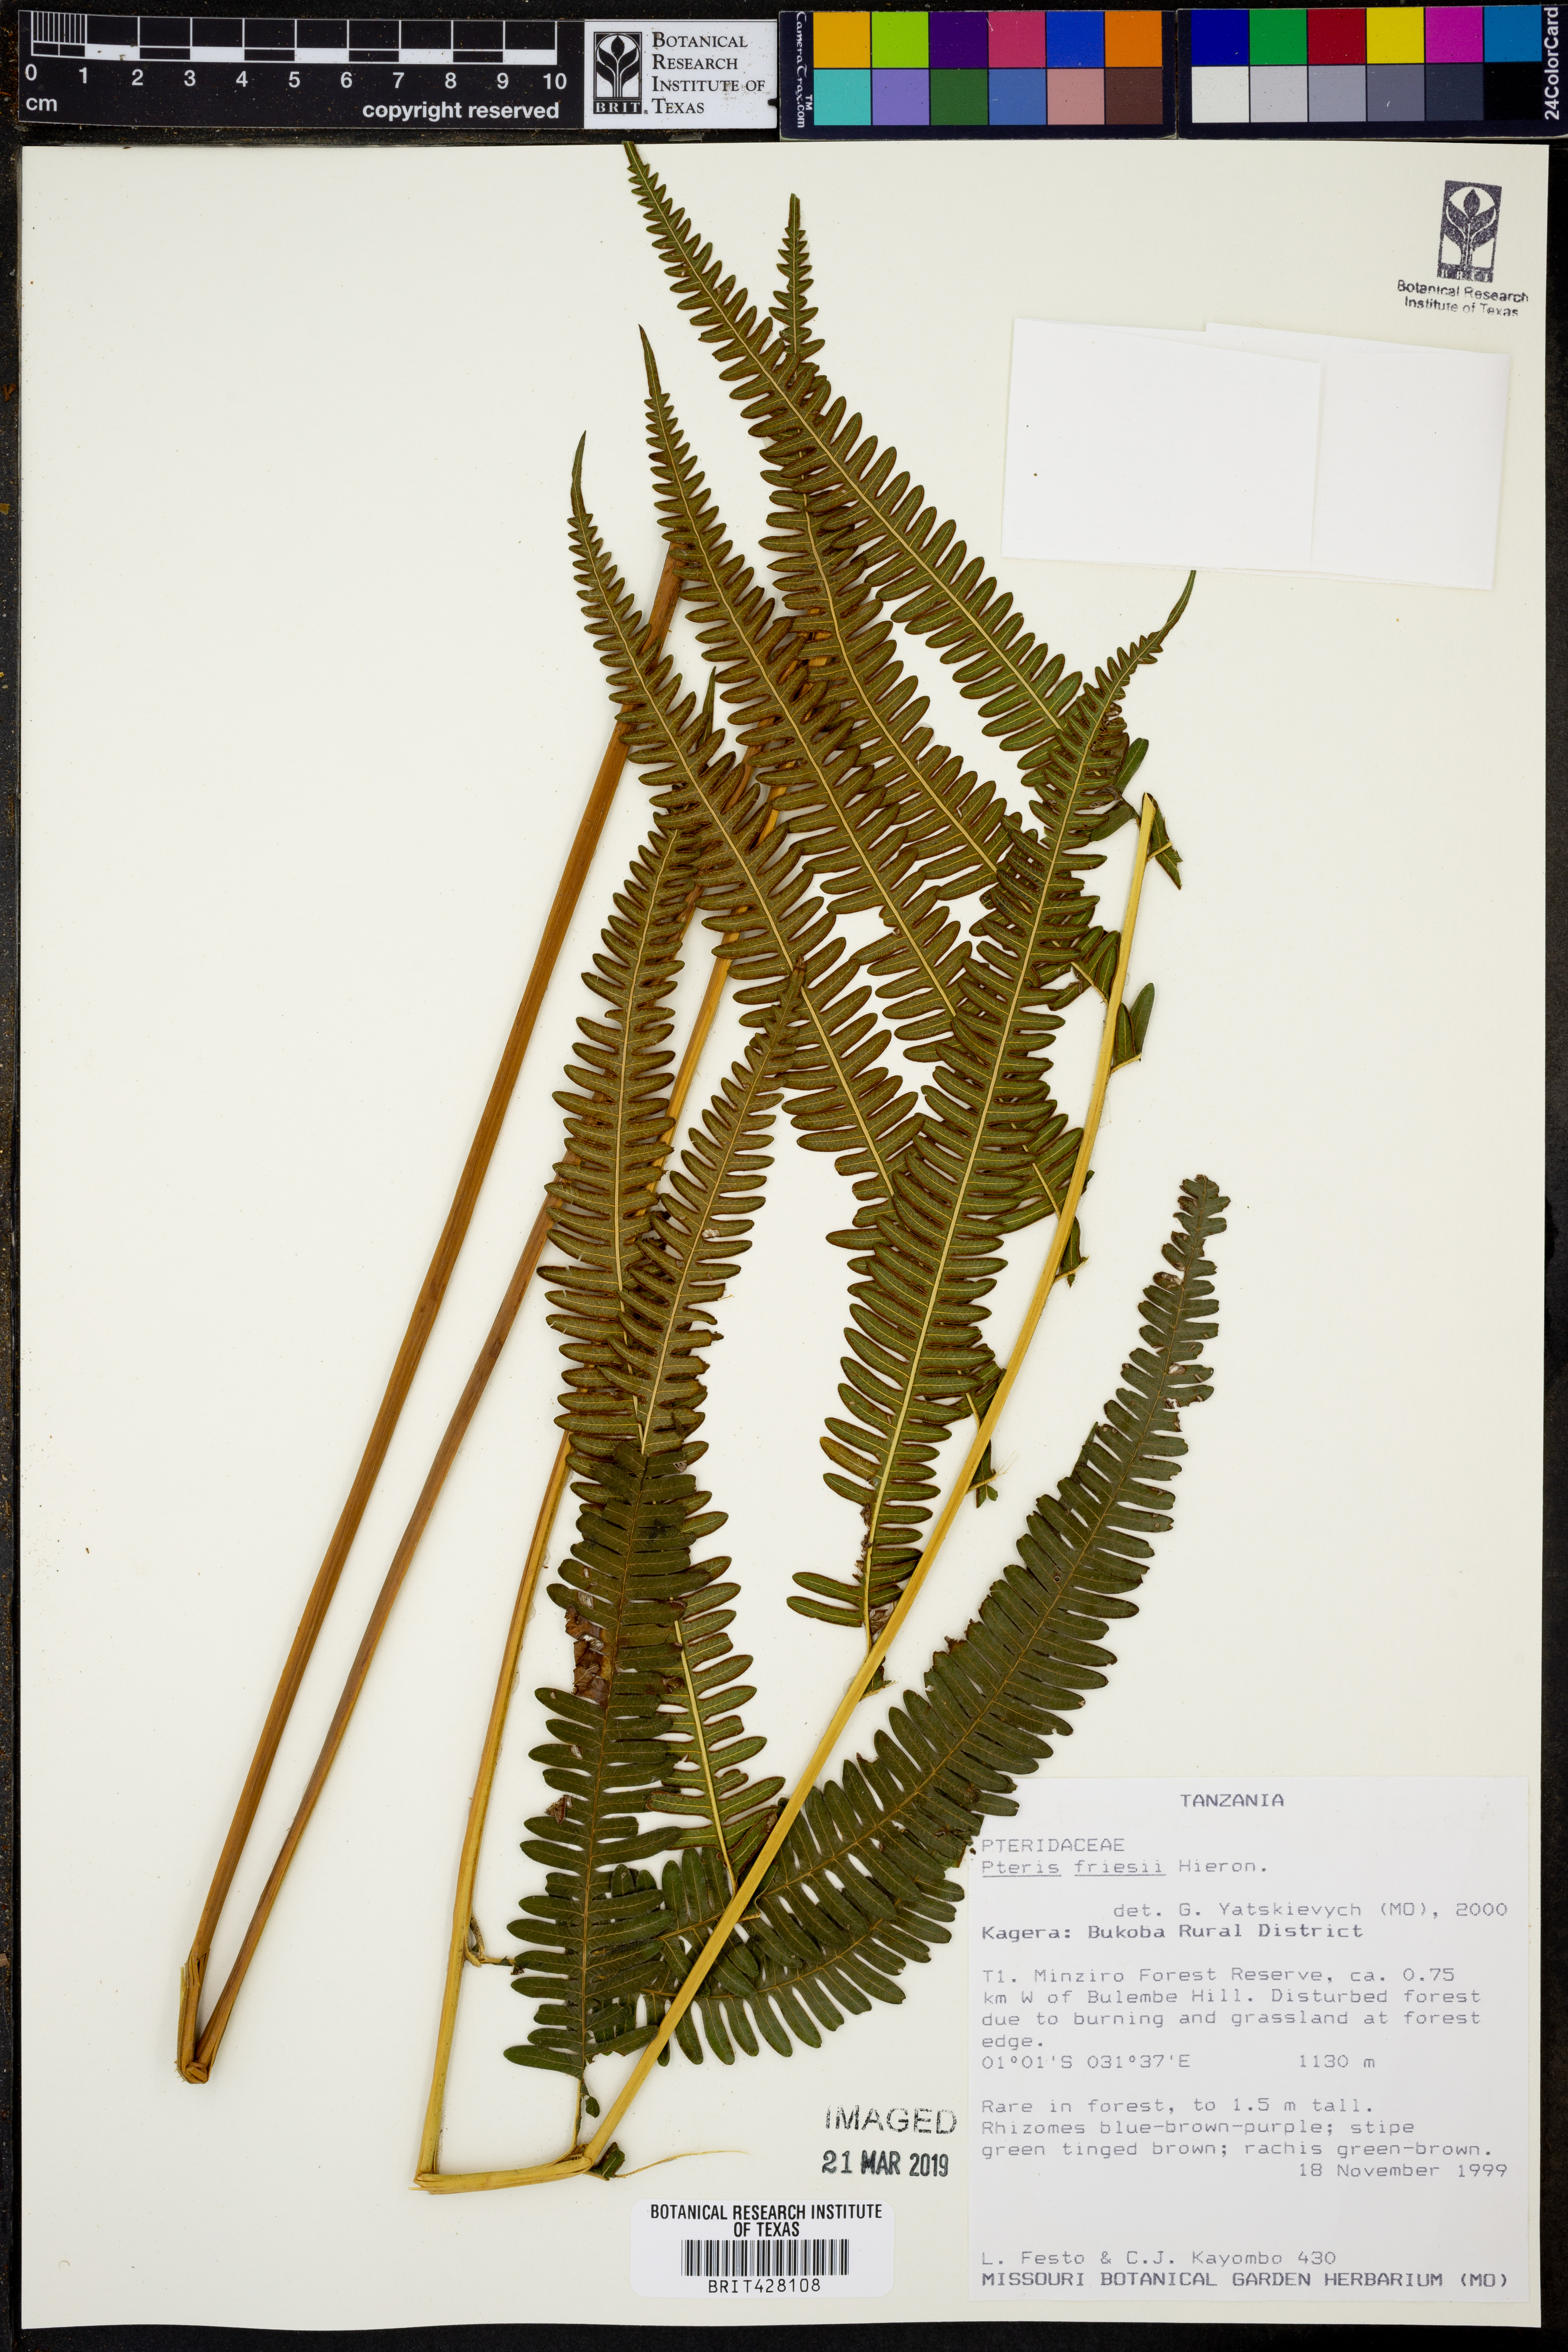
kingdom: Plantae
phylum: Tracheophyta
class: Polypodiopsida
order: Polypodiales
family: Pteridaceae
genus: Pteris
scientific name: Pteris friesii
